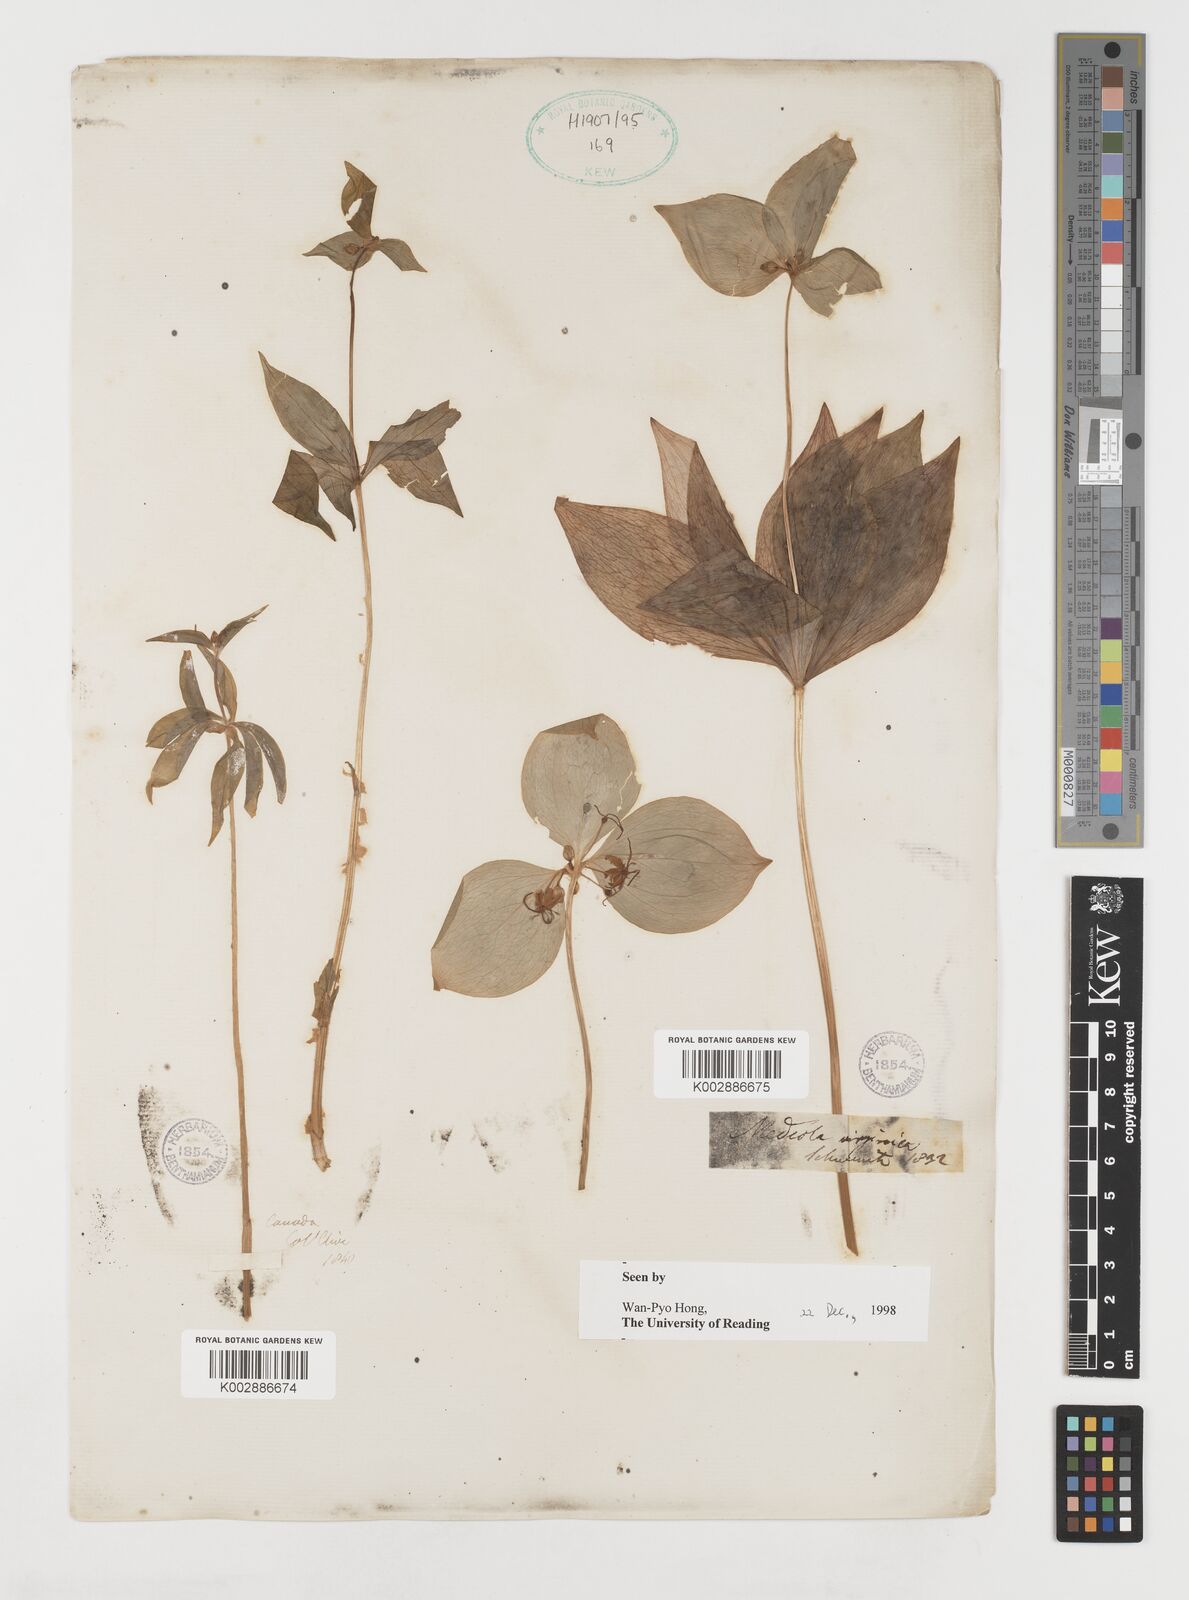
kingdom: Plantae
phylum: Tracheophyta
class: Liliopsida
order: Liliales
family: Liliaceae
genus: Medeola
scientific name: Medeola virginiana
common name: Indian cucumber-root
